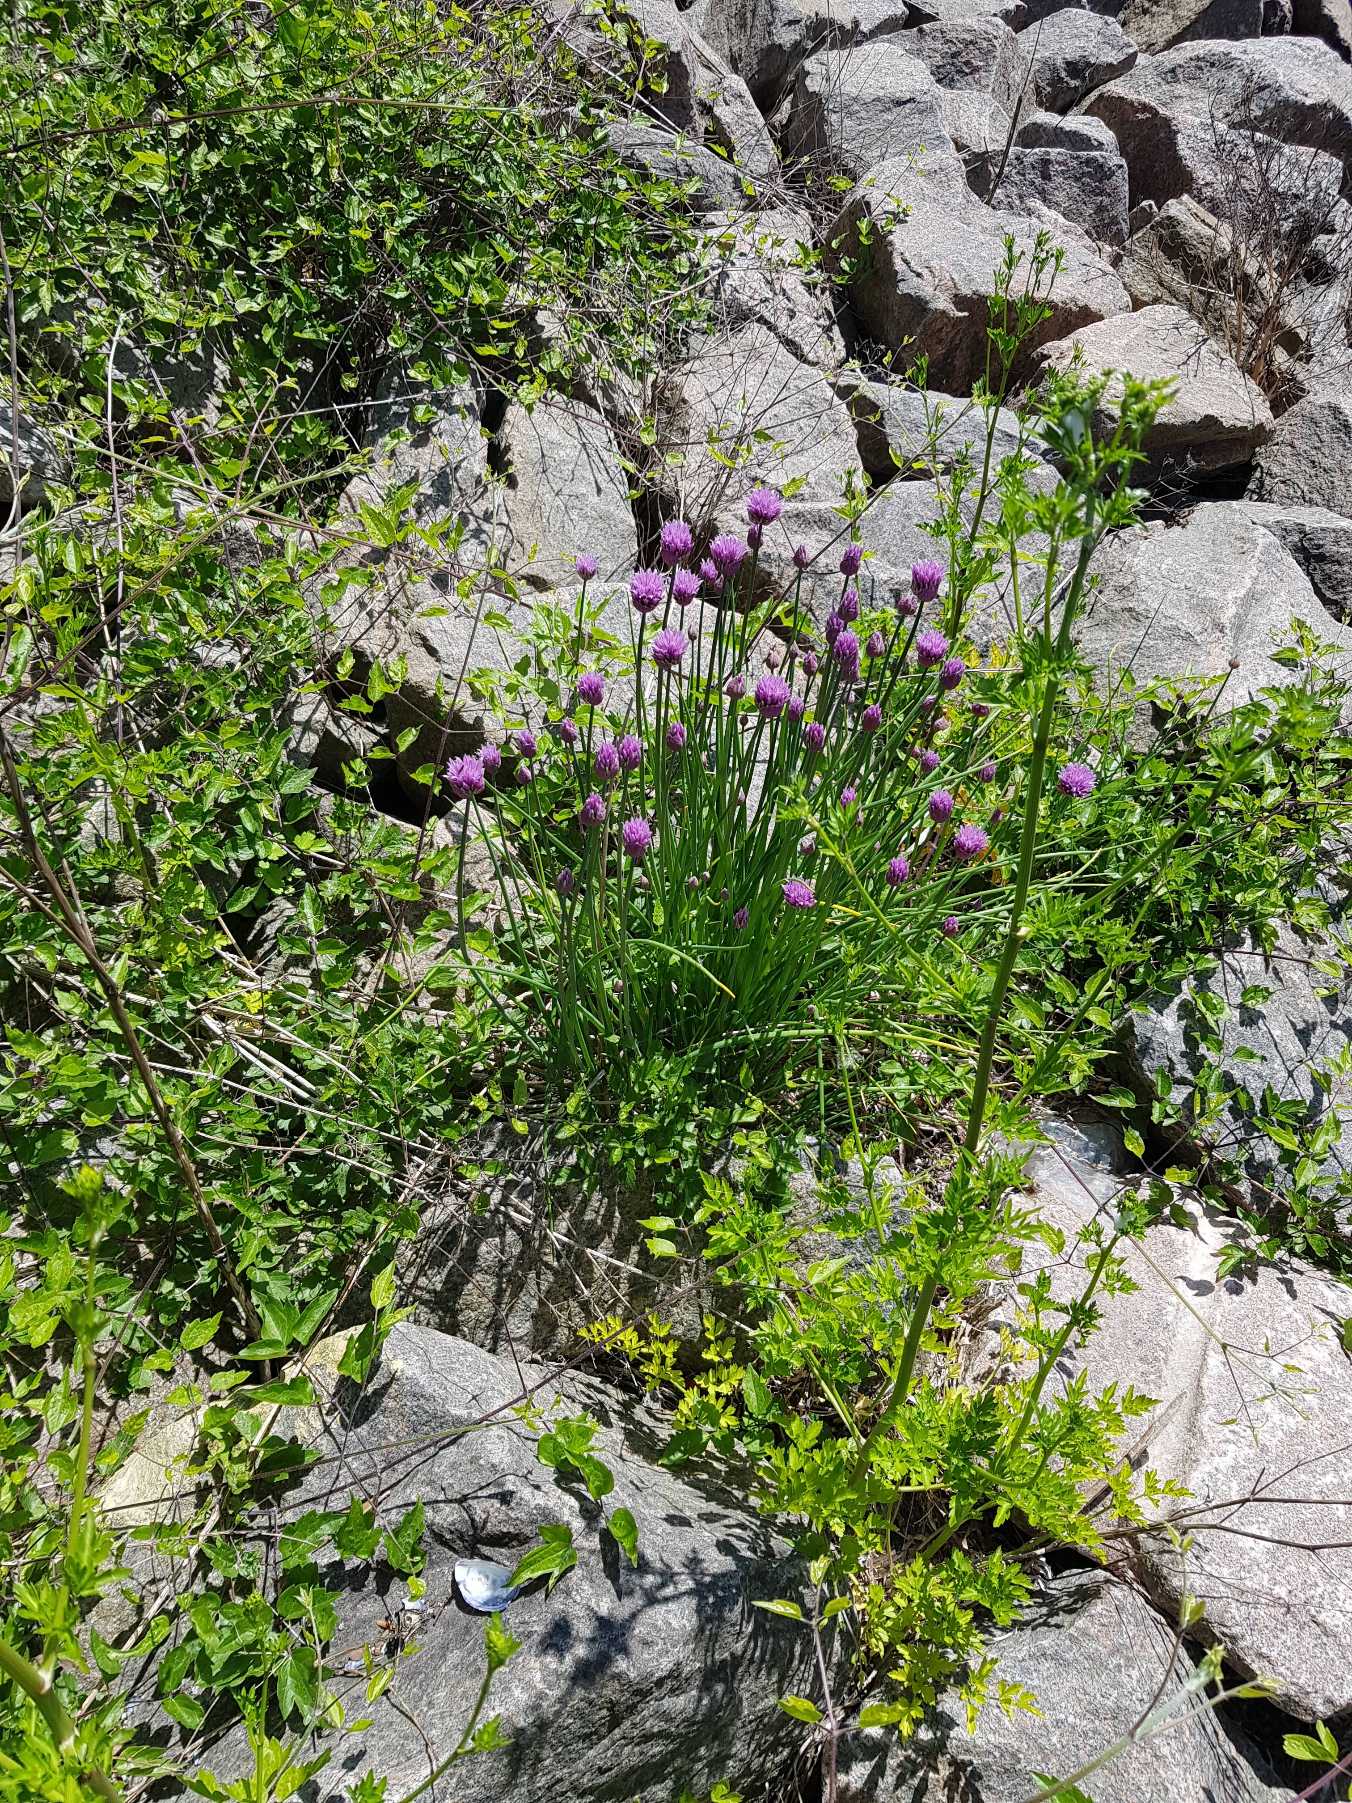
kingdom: Plantae
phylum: Tracheophyta
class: Liliopsida
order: Asparagales
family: Amaryllidaceae
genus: Allium
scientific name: Allium schoenoprasum
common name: Pur-løg
